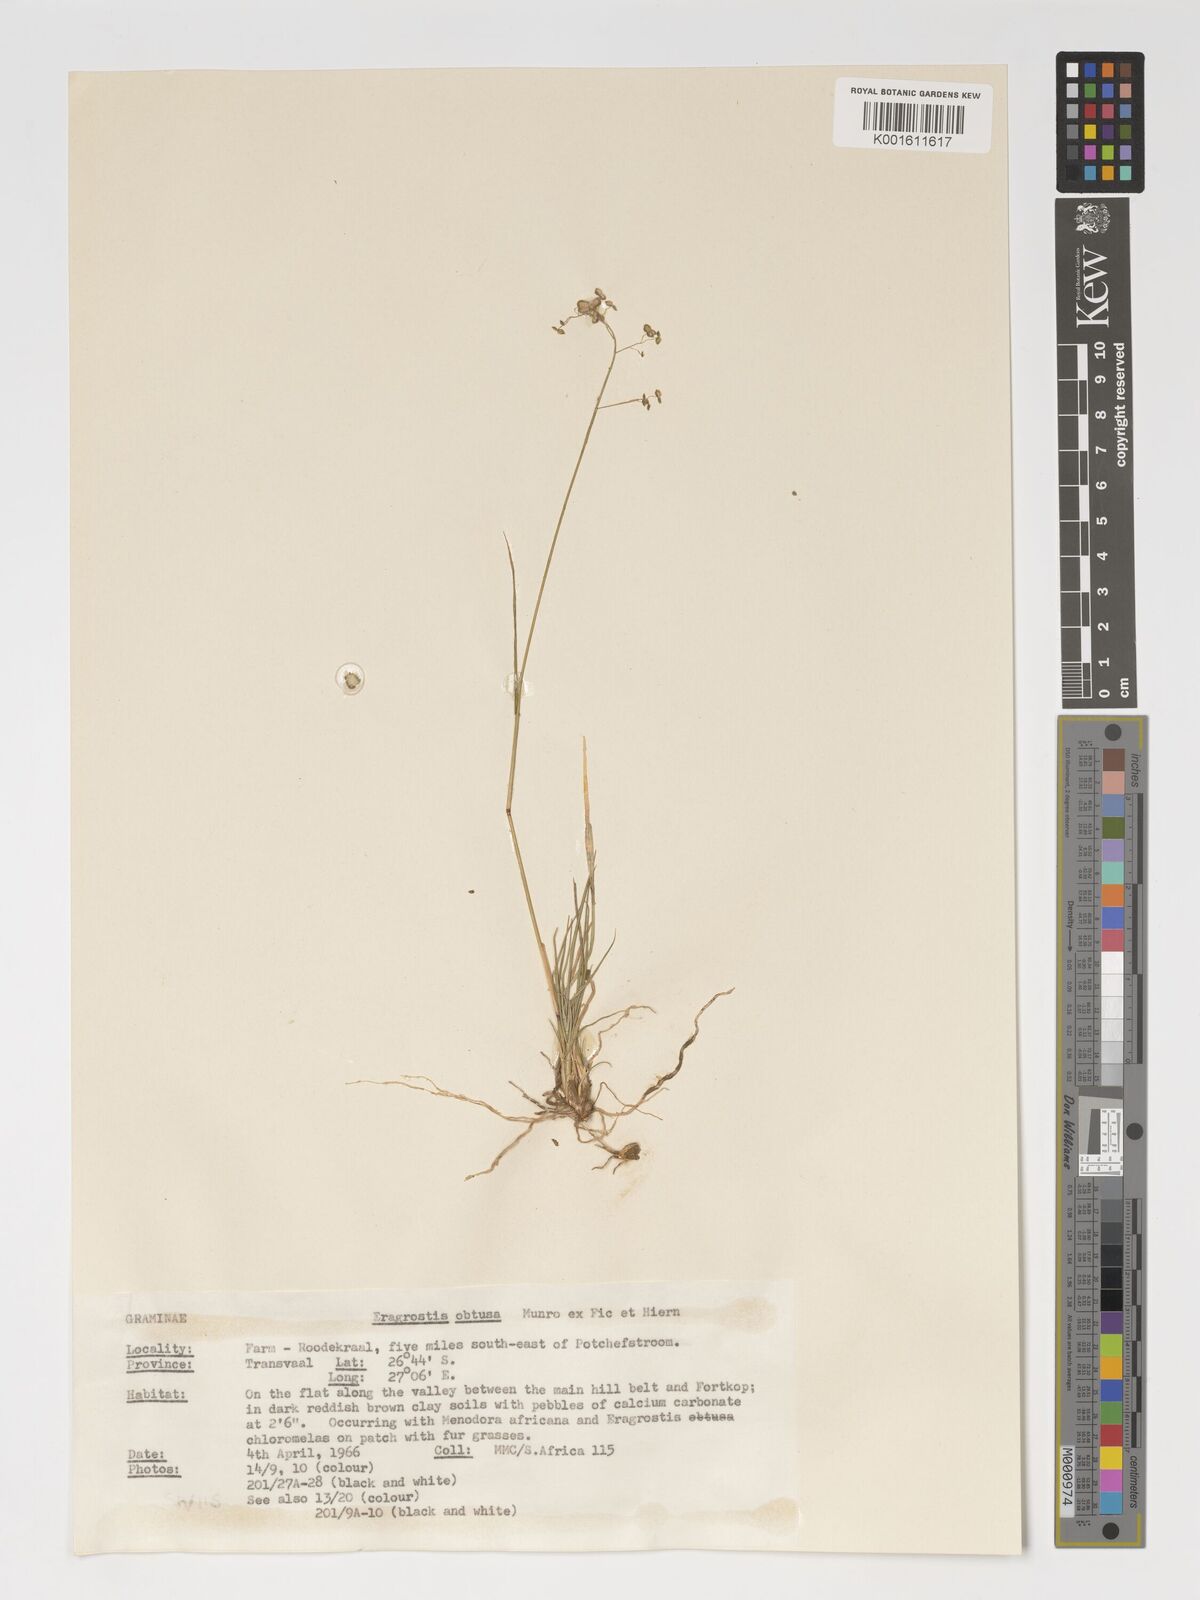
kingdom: Plantae
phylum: Tracheophyta
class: Liliopsida
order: Poales
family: Poaceae
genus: Eragrostis
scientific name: Eragrostis obtusa
